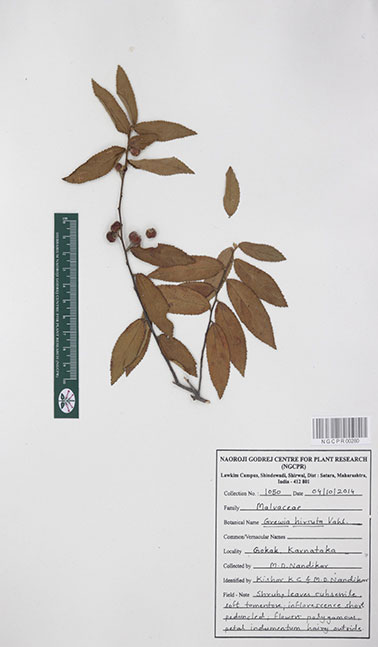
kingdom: Plantae
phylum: Tracheophyta
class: Magnoliopsida
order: Malvales
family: Malvaceae
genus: Grewia
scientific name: Grewia hirsuta
